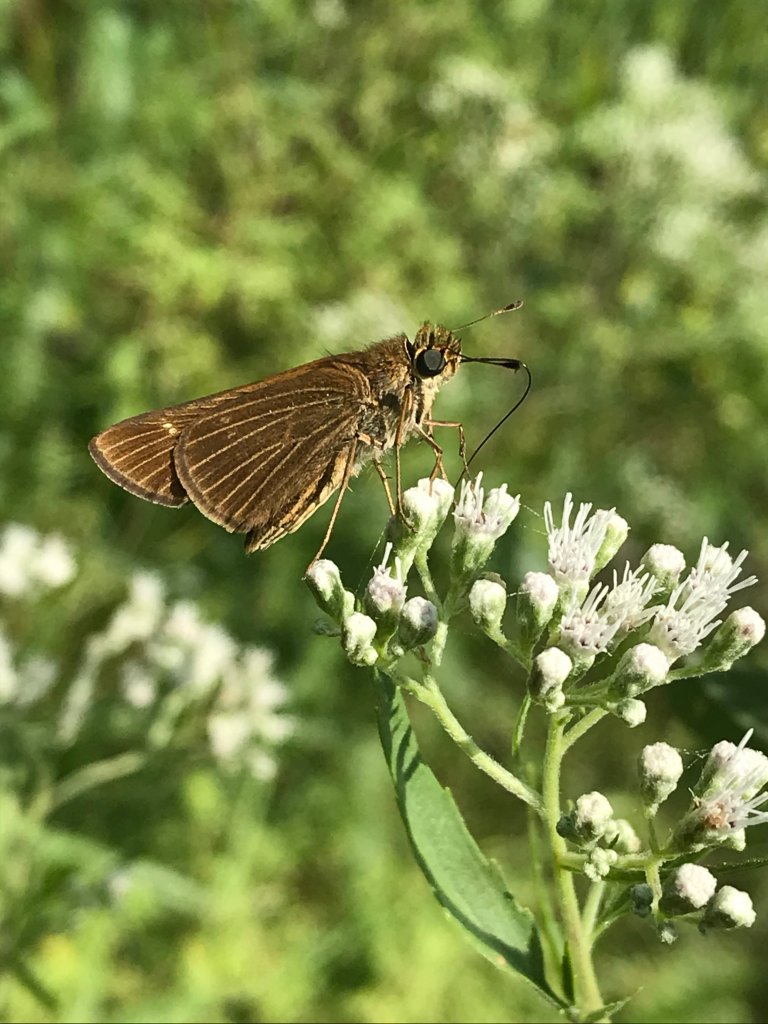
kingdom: Animalia
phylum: Arthropoda
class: Insecta
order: Lepidoptera
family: Hesperiidae
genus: Panoquina
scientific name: Panoquina ocola
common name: Ocola Skipper
